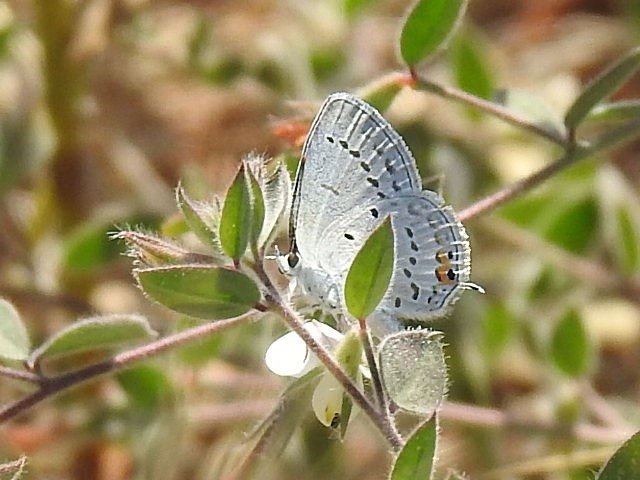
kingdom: Animalia
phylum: Arthropoda
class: Insecta
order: Lepidoptera
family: Lycaenidae
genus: Elkalyce
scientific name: Elkalyce amyntula
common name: Western Tailed-Blue
